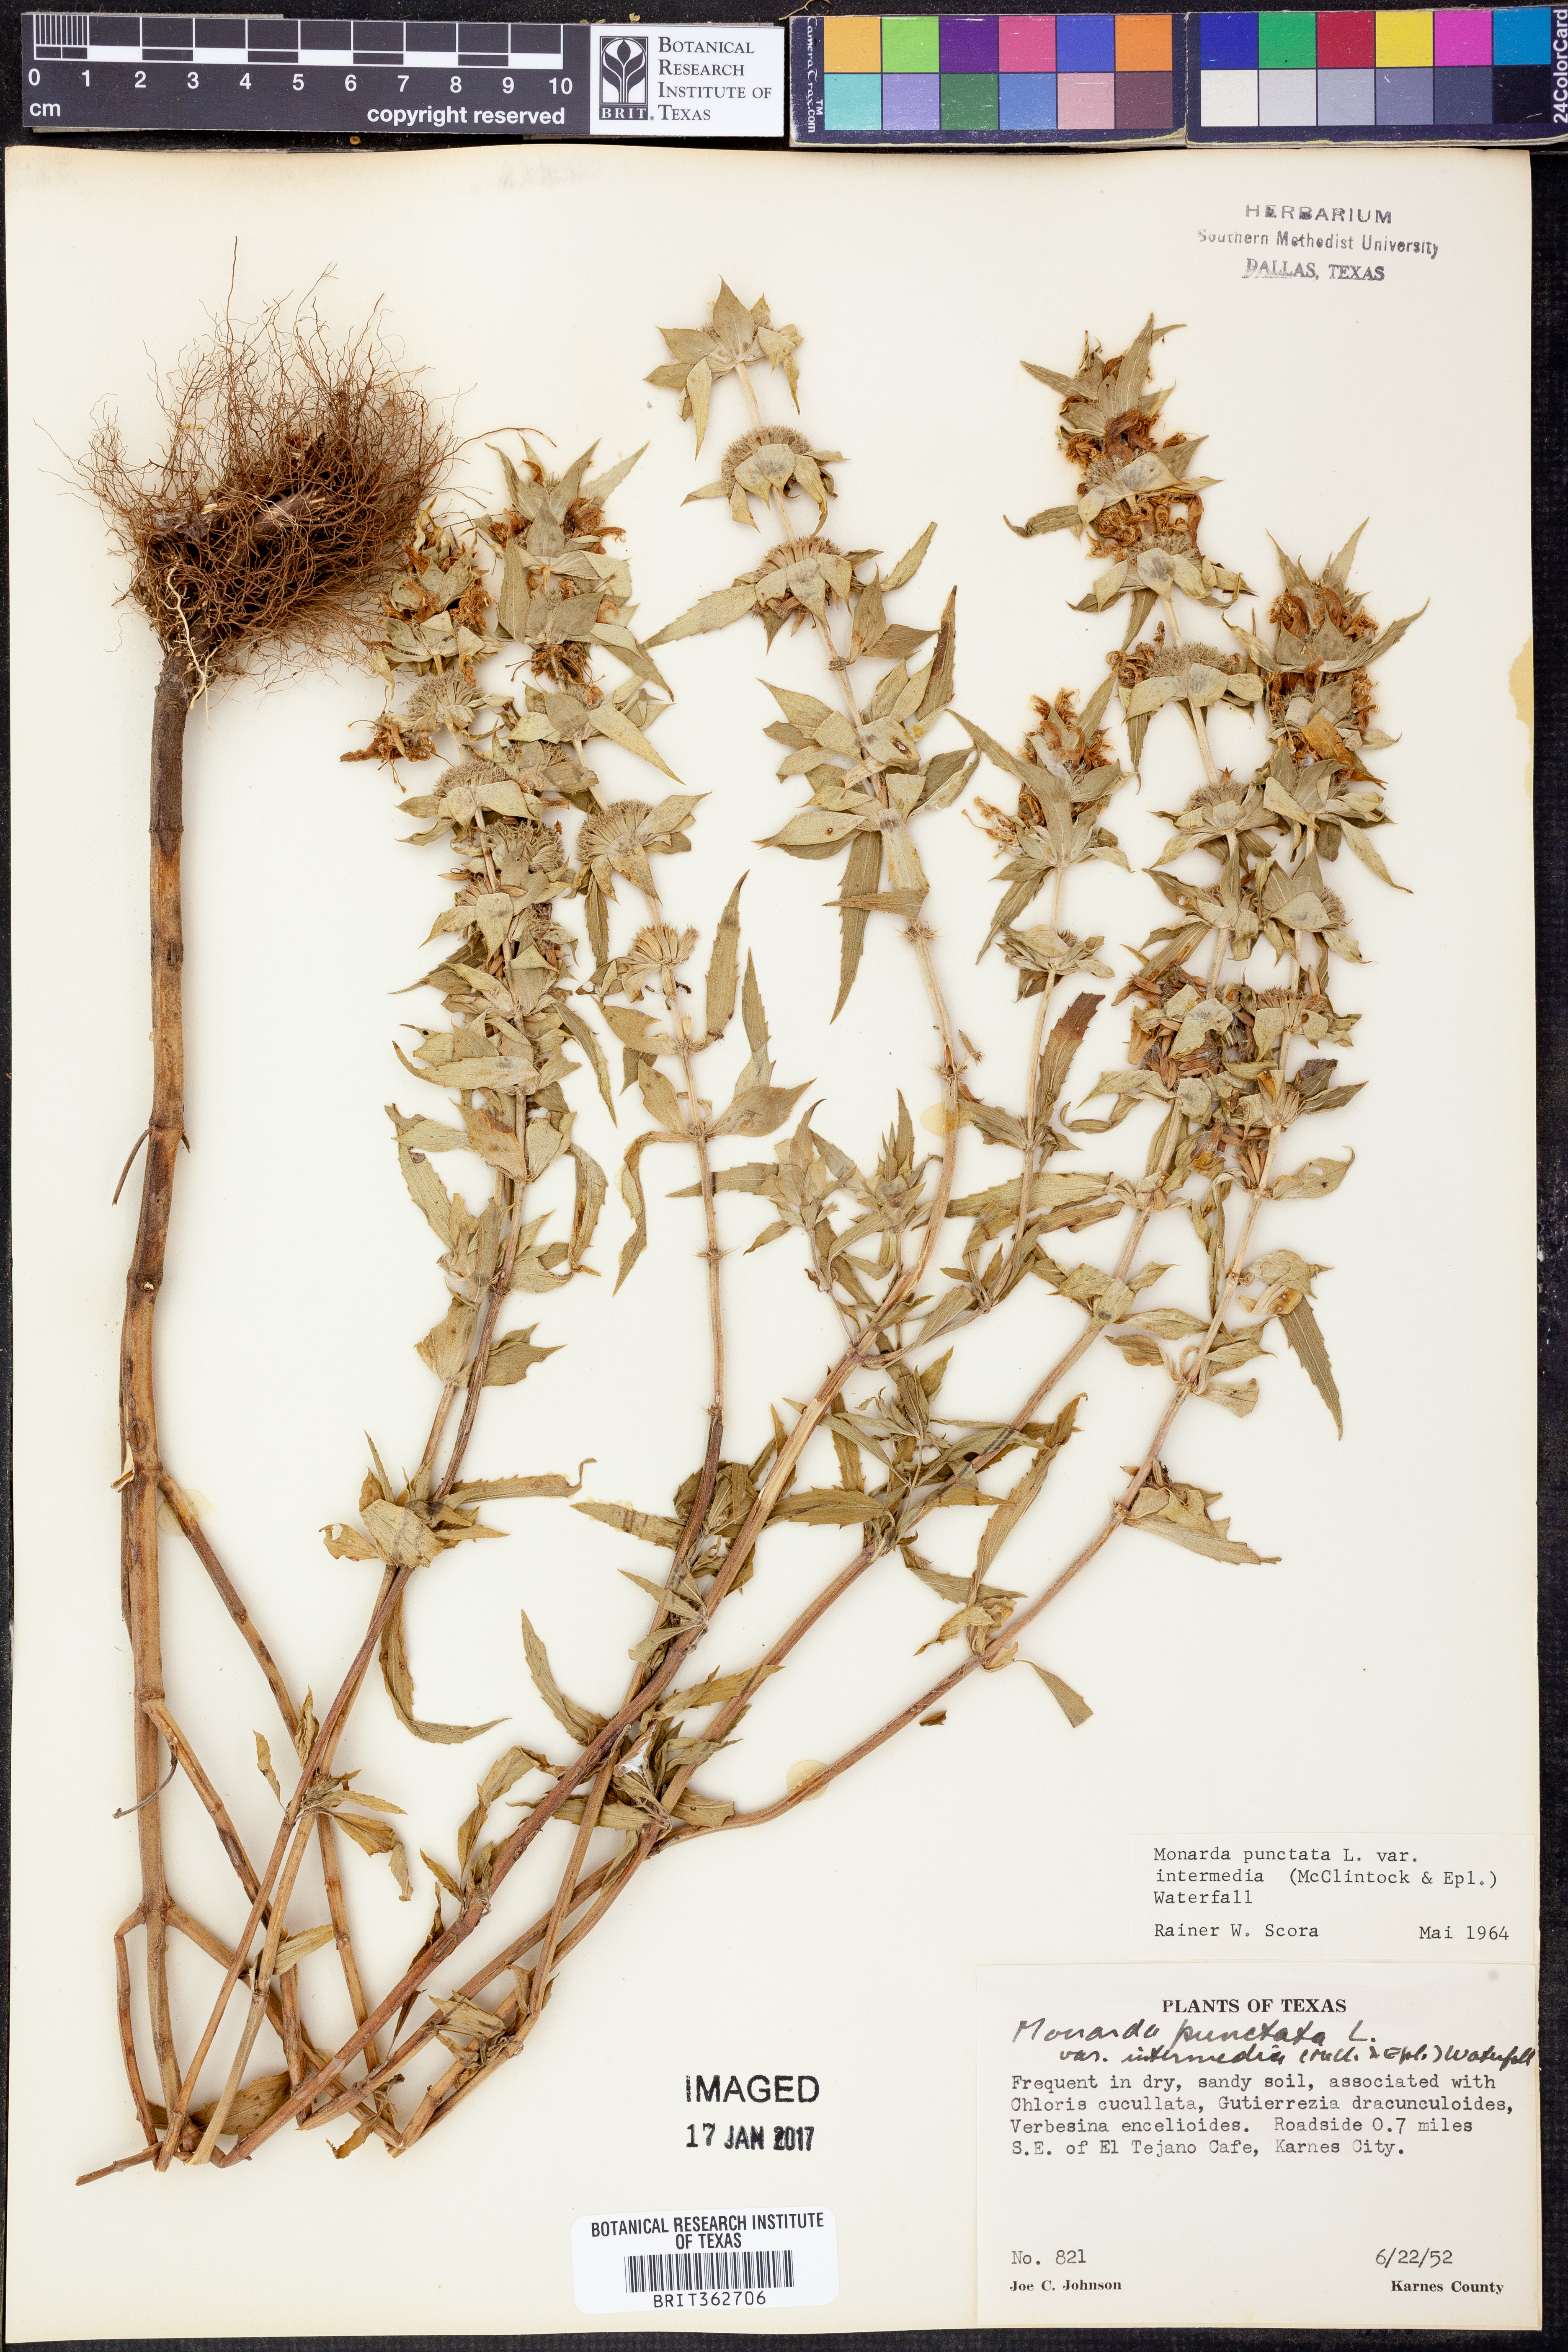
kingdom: Plantae
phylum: Tracheophyta
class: Magnoliopsida
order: Lamiales
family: Lamiaceae
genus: Monarda
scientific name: Monarda punctata
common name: Dotted monarda
